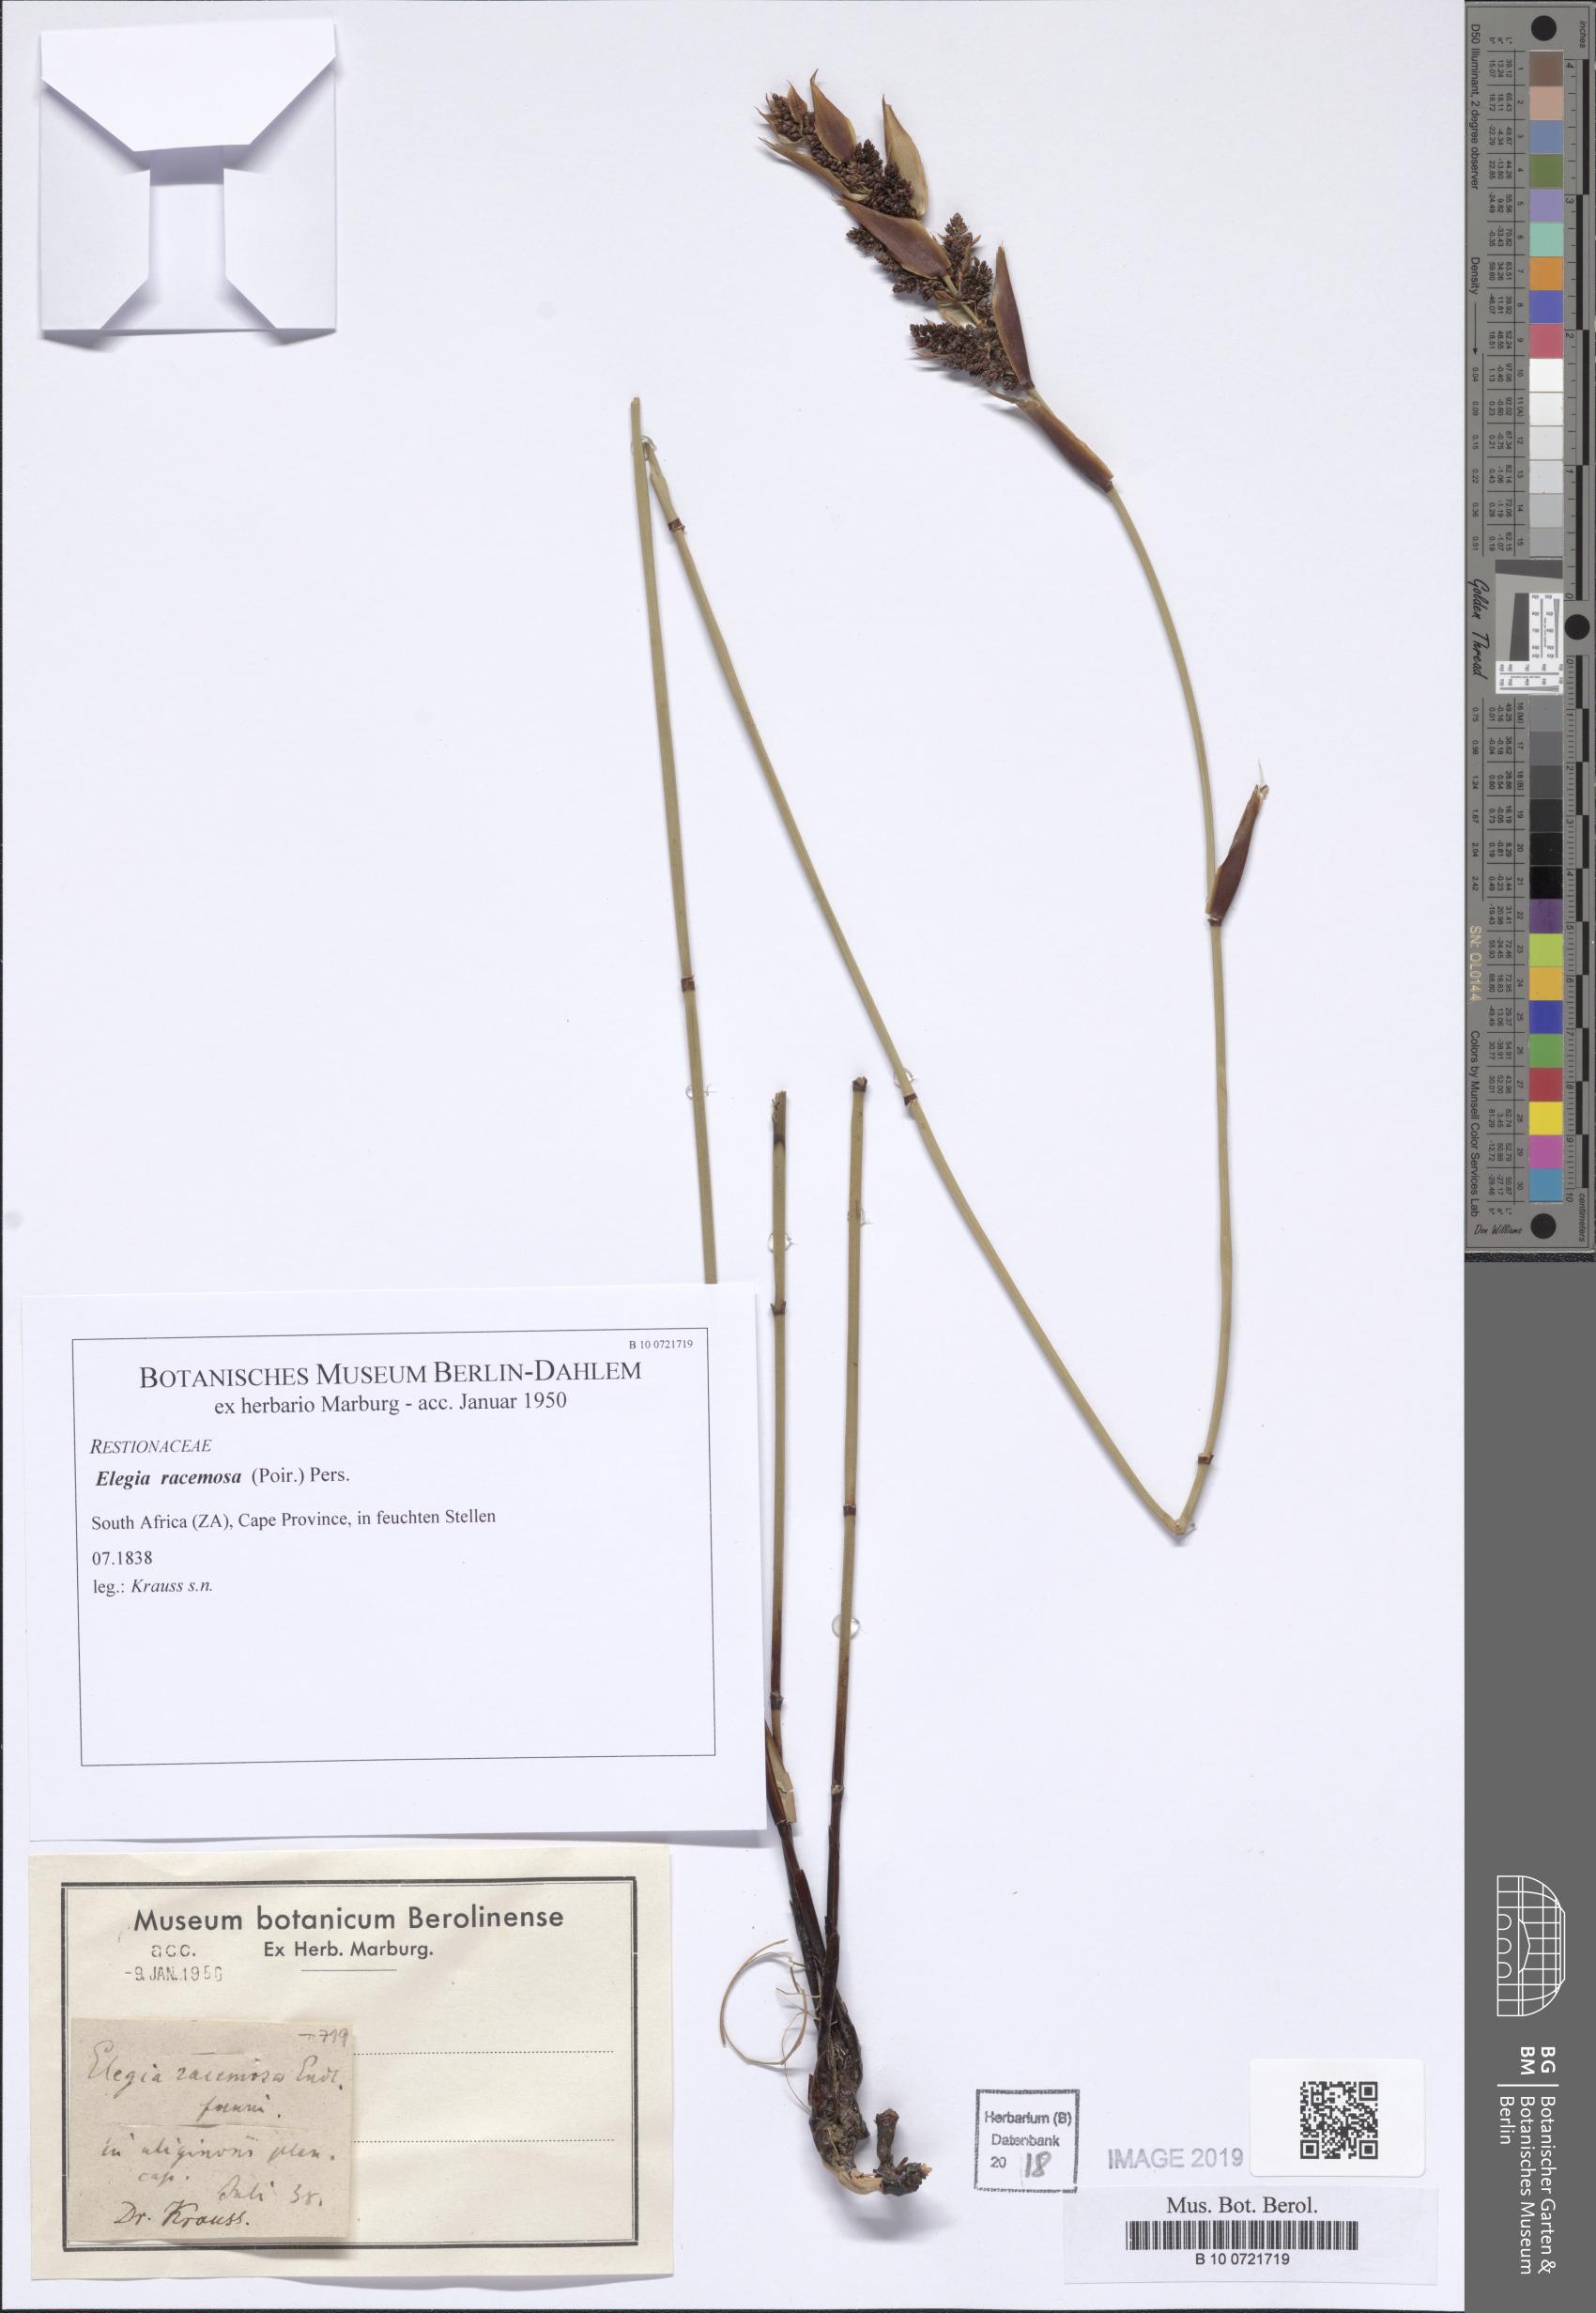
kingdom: Plantae
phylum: Tracheophyta
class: Liliopsida
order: Poales
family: Restionaceae
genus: Elegia
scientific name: Elegia racemosa
